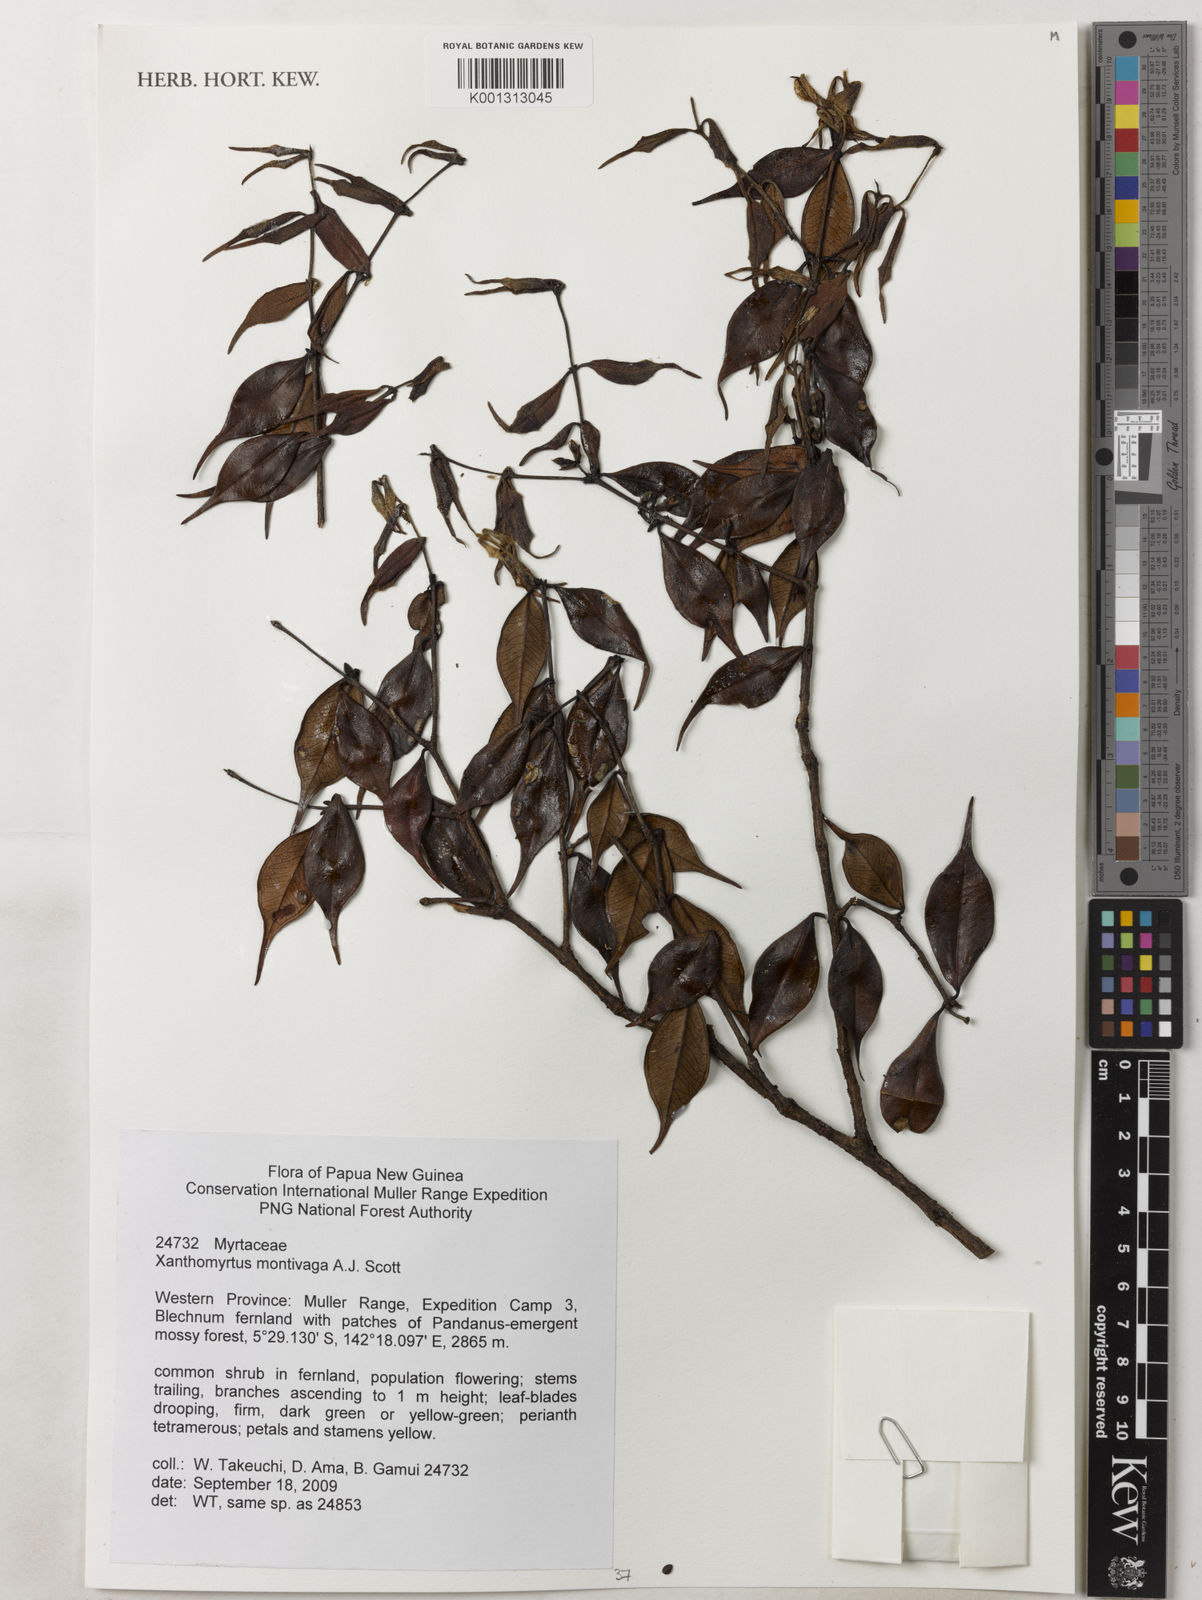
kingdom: Plantae
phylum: Tracheophyta
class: Magnoliopsida
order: Myrtales
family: Myrtaceae
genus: Xanthomyrtus
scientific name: Xanthomyrtus montivaga
